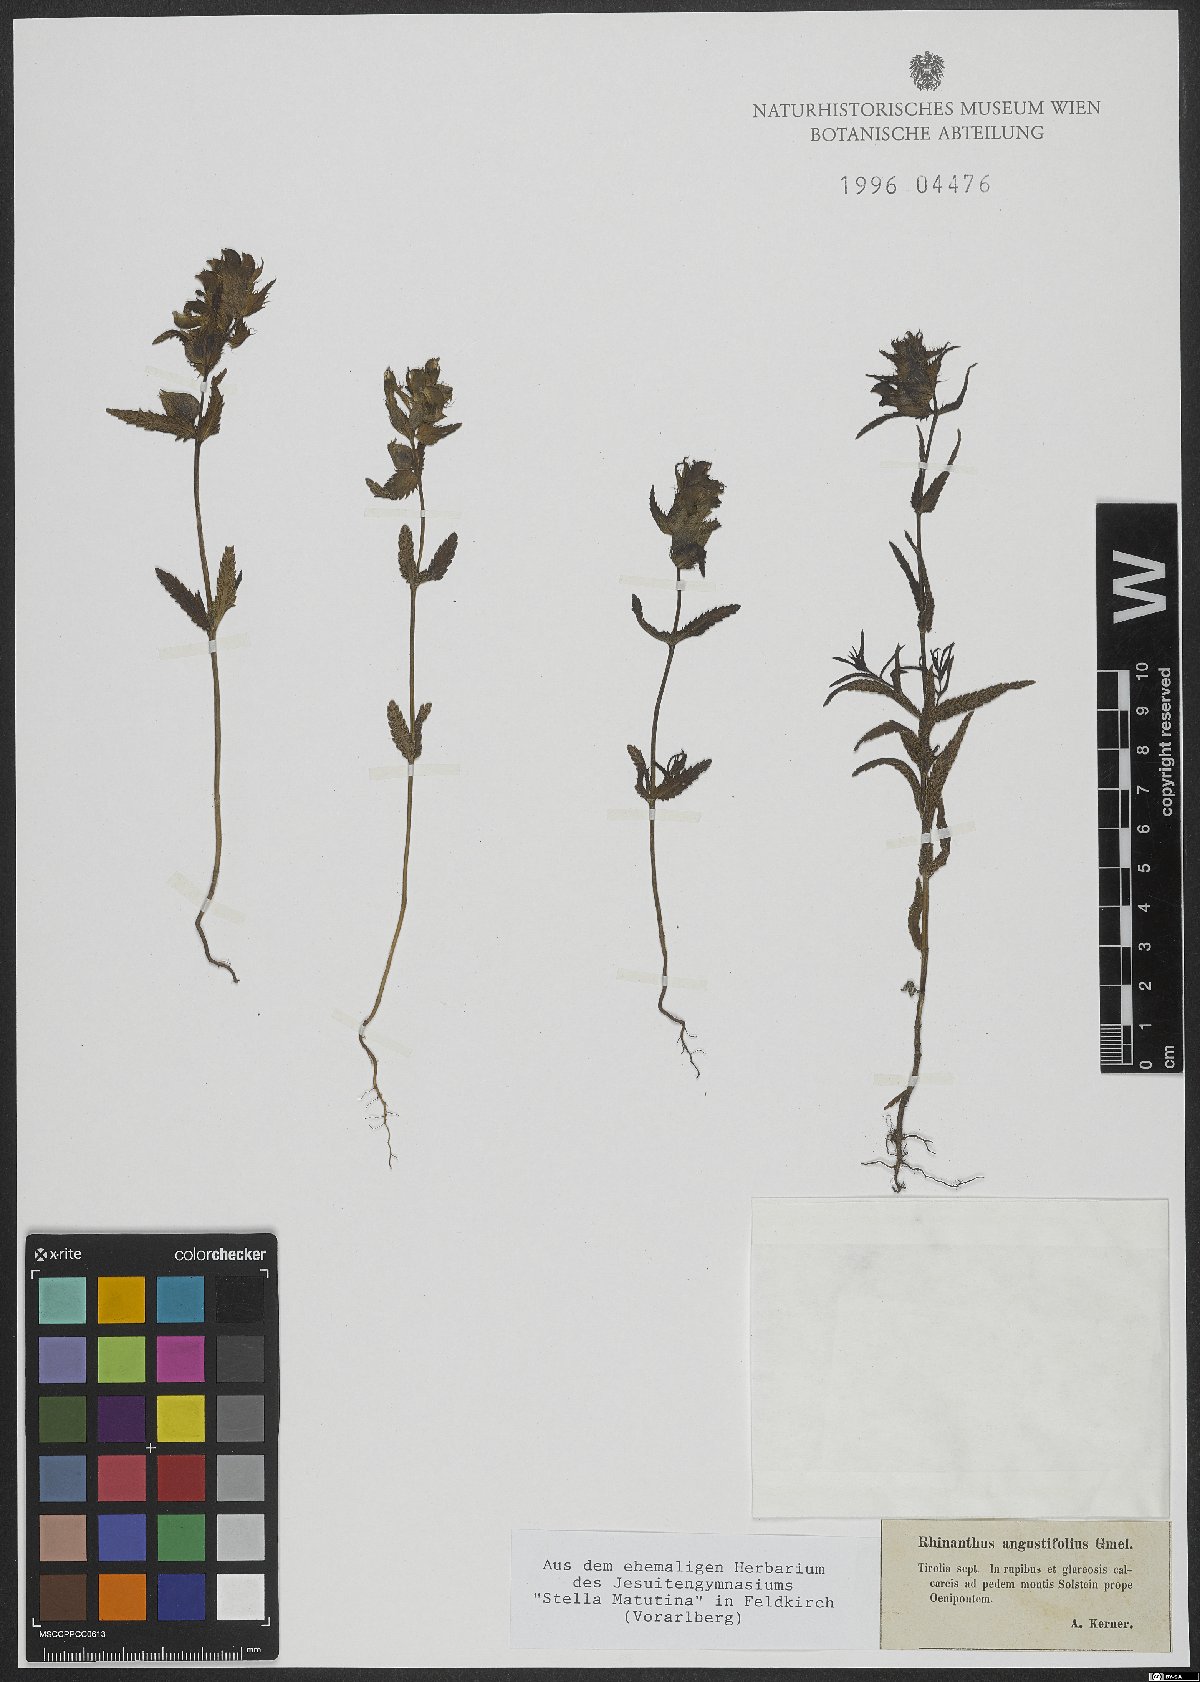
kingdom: Plantae
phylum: Tracheophyta
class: Magnoliopsida
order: Lamiales
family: Orobanchaceae
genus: Rhinanthus
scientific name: Rhinanthus glacialis
